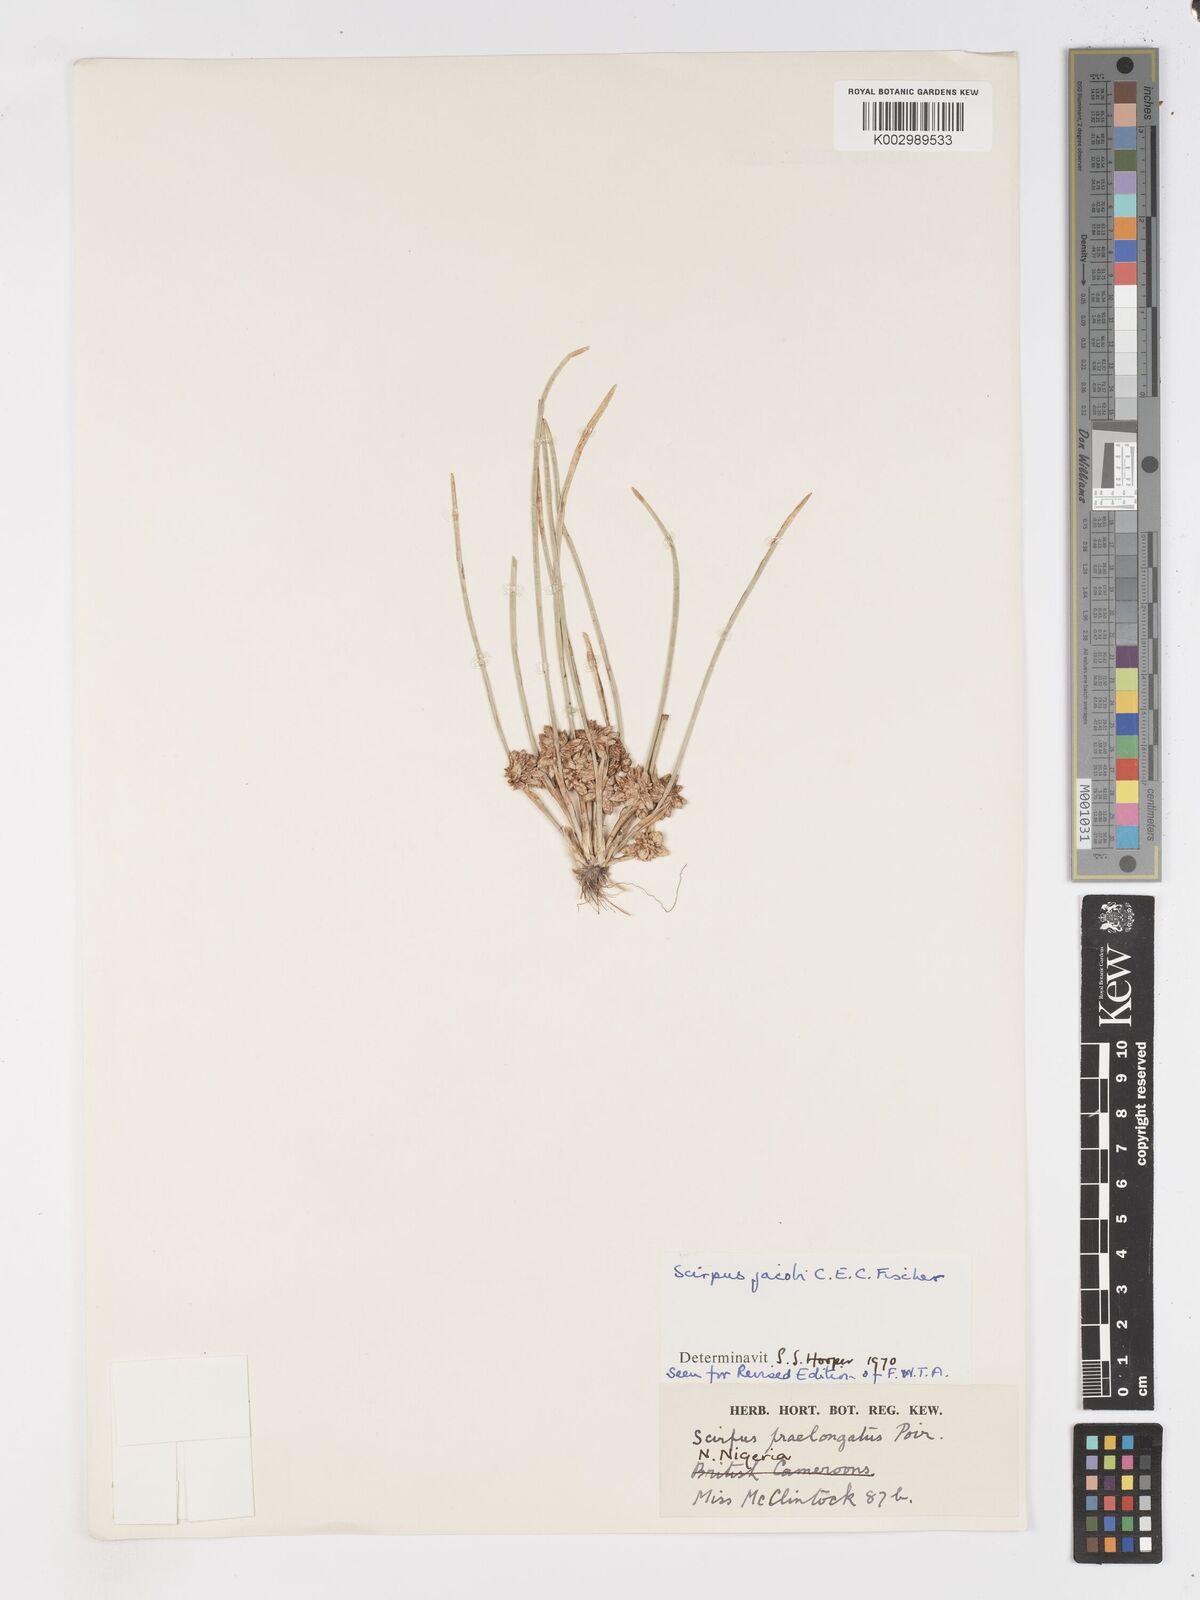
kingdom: Plantae
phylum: Tracheophyta
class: Liliopsida
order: Poales
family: Cyperaceae
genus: Schoenoplectiella
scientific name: Schoenoplectiella praelongata
